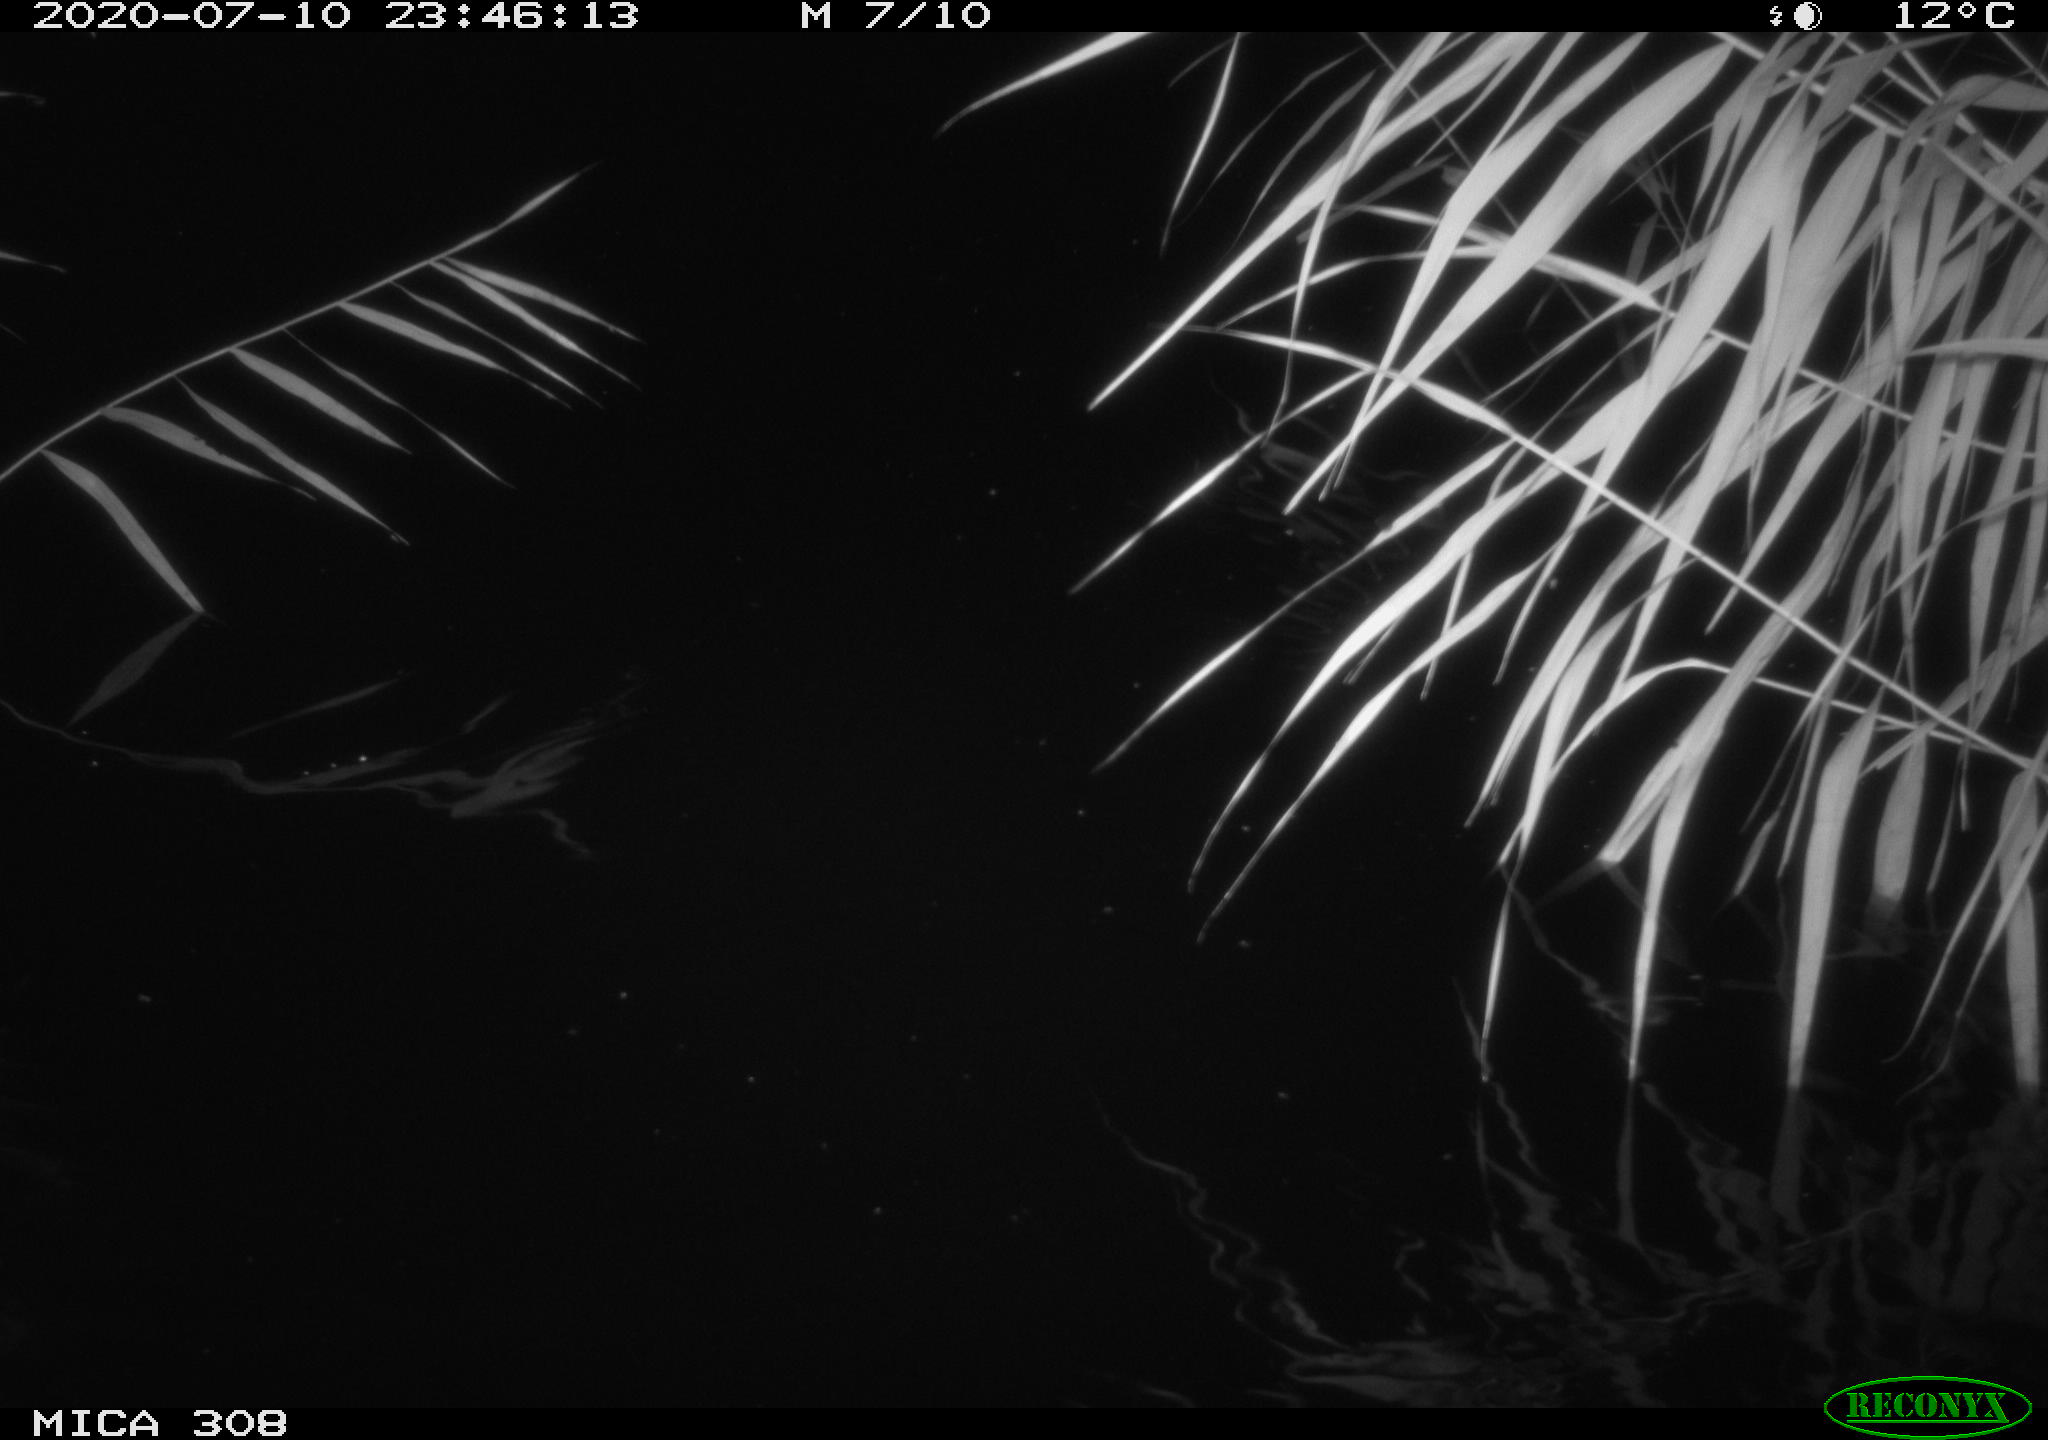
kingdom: Animalia
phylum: Chordata
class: Mammalia
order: Rodentia
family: Muridae
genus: Rattus
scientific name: Rattus norvegicus
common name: Brown rat
